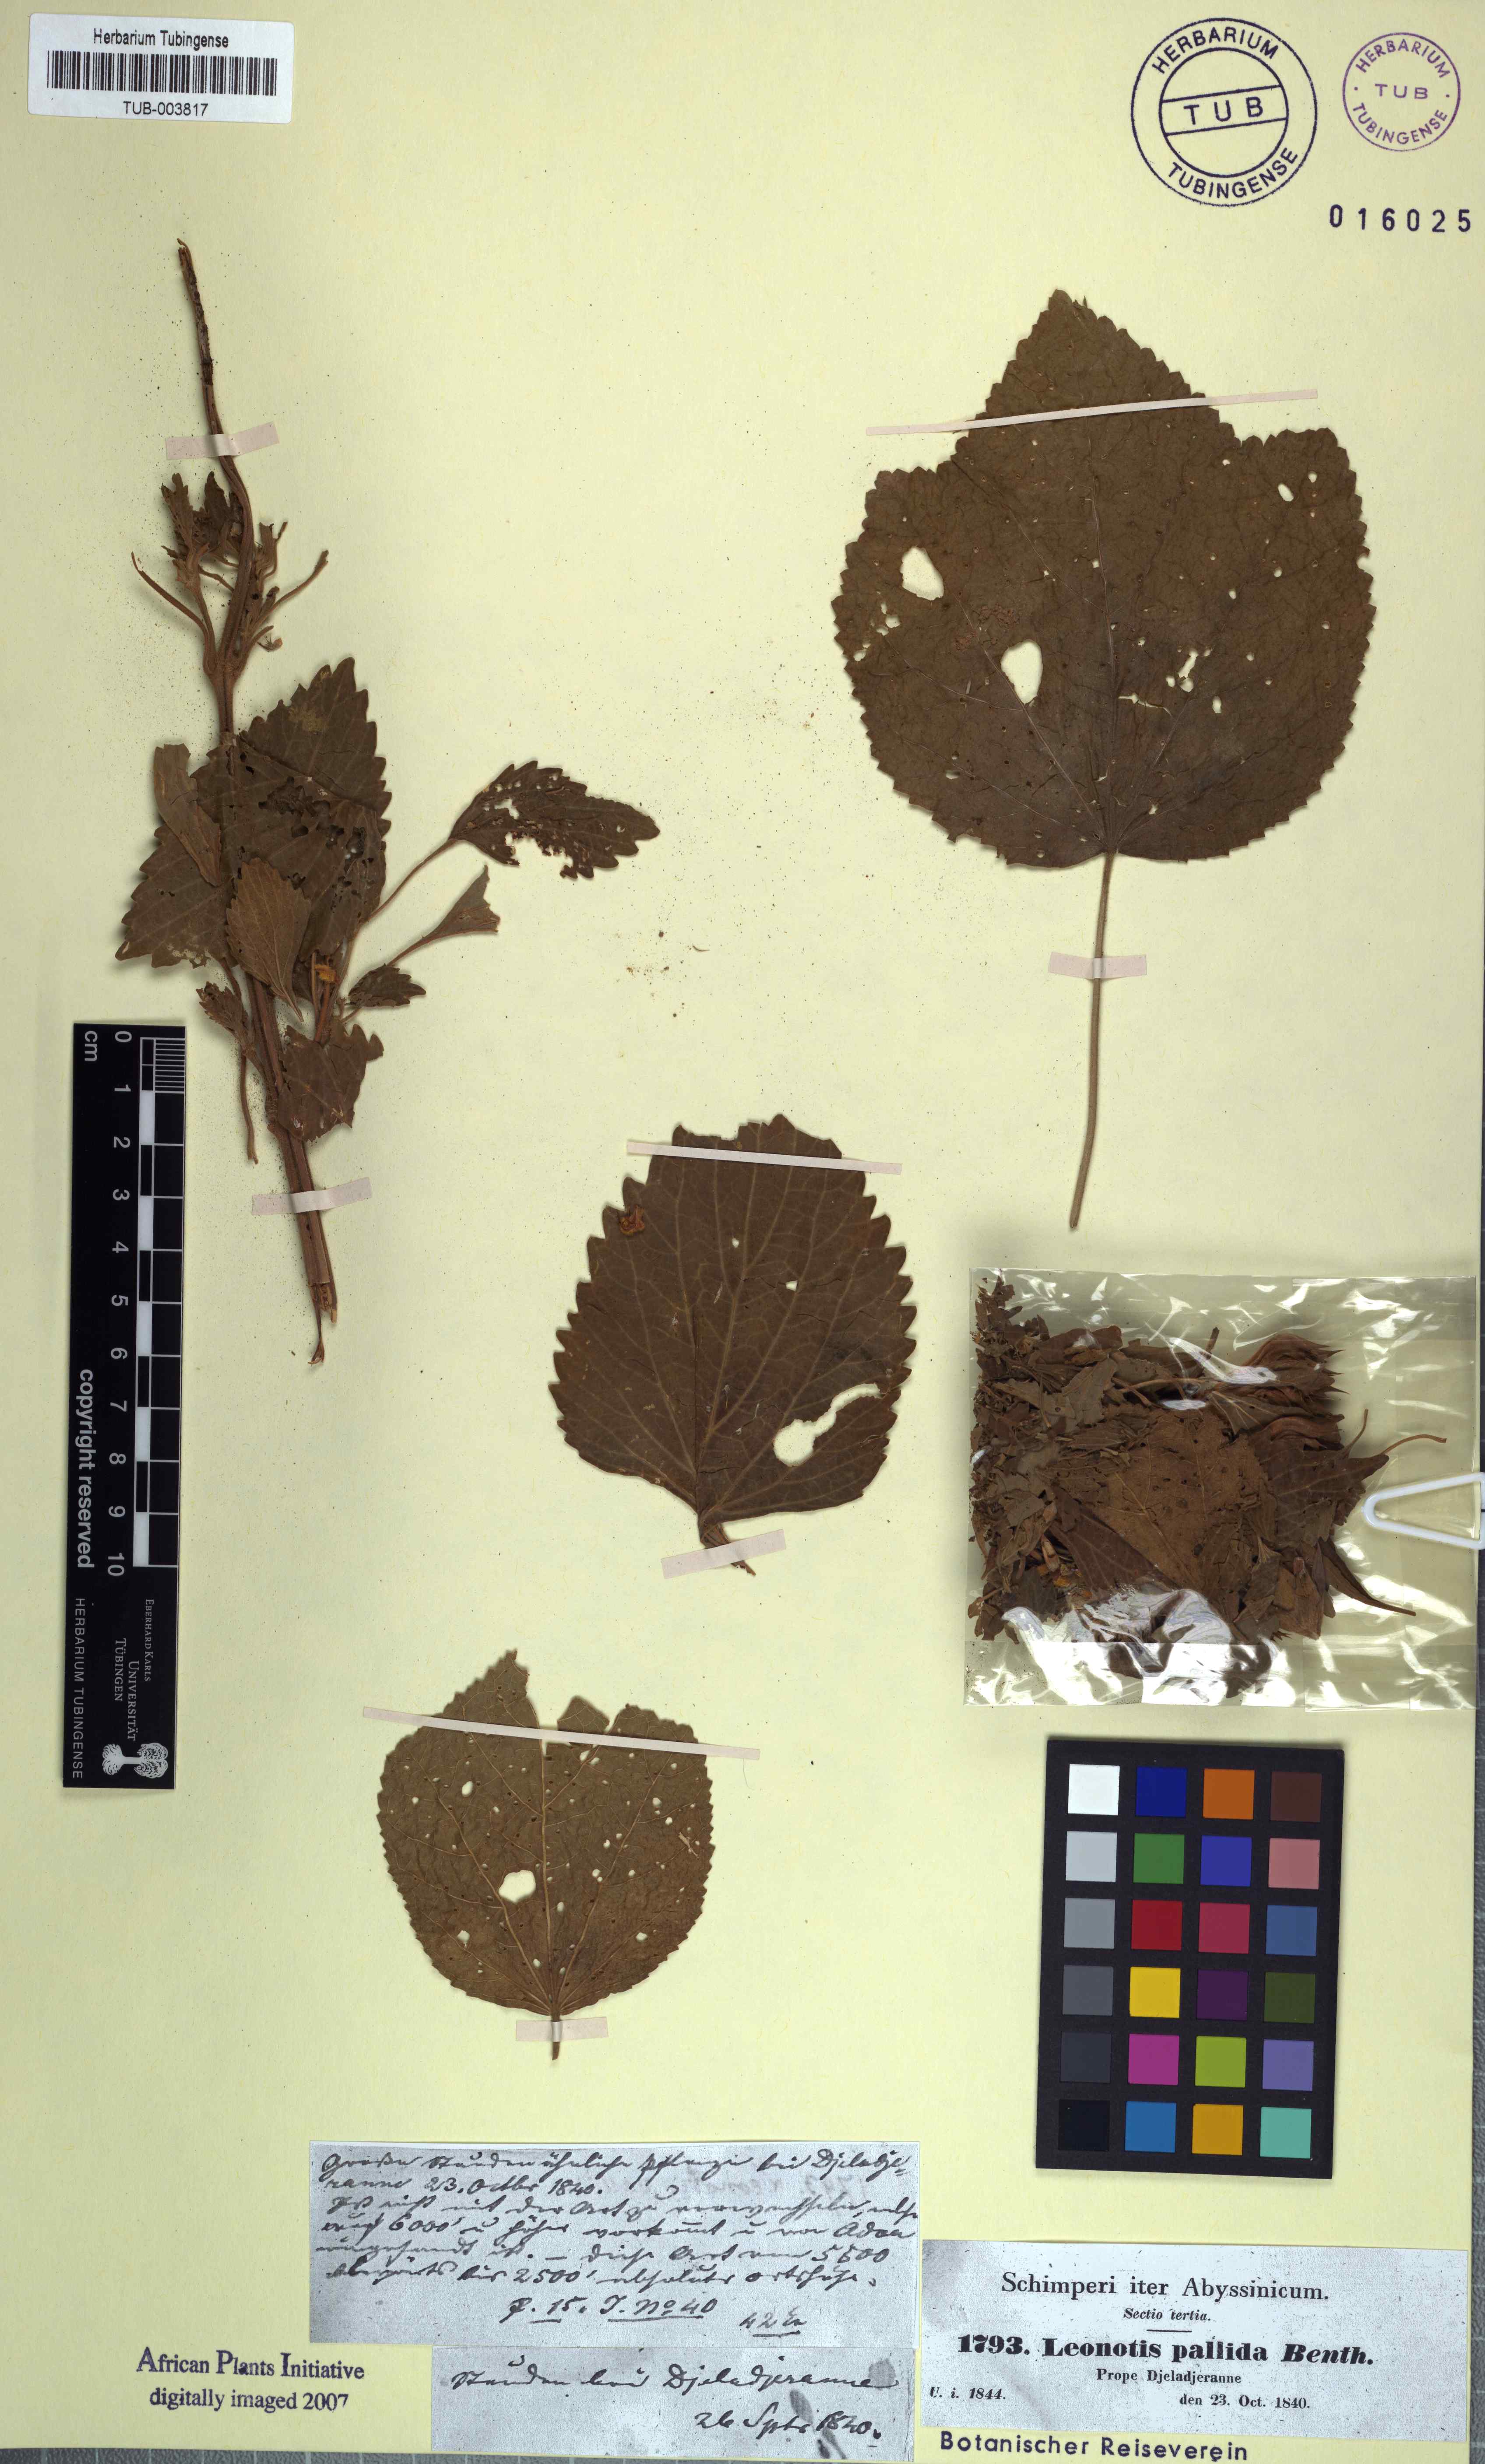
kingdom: Plantae
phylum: Tracheophyta
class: Magnoliopsida
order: Lamiales
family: Lamiaceae
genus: Leonotis
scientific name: Leonotis nepetifolia
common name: Christmas candlestick
